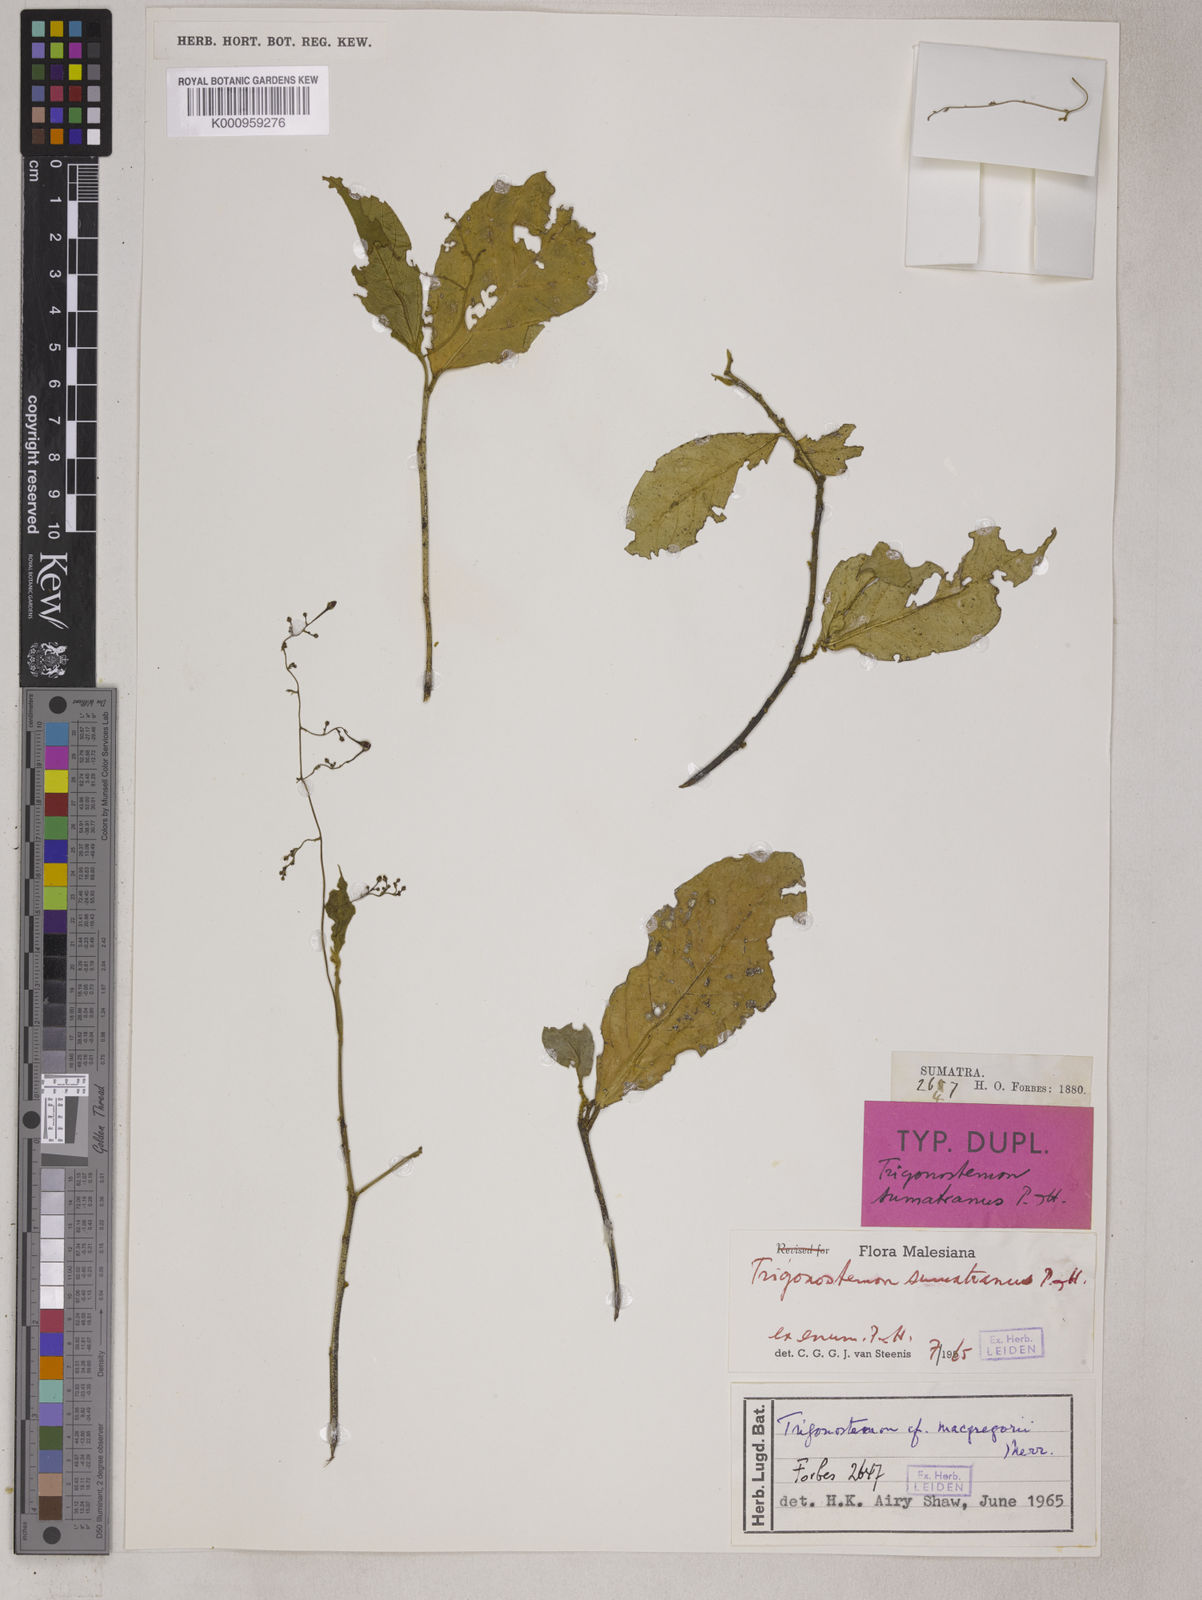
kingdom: Plantae
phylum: Tracheophyta
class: Magnoliopsida
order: Malpighiales
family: Euphorbiaceae
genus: Trigonostemon
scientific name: Trigonostemon viridissimus
